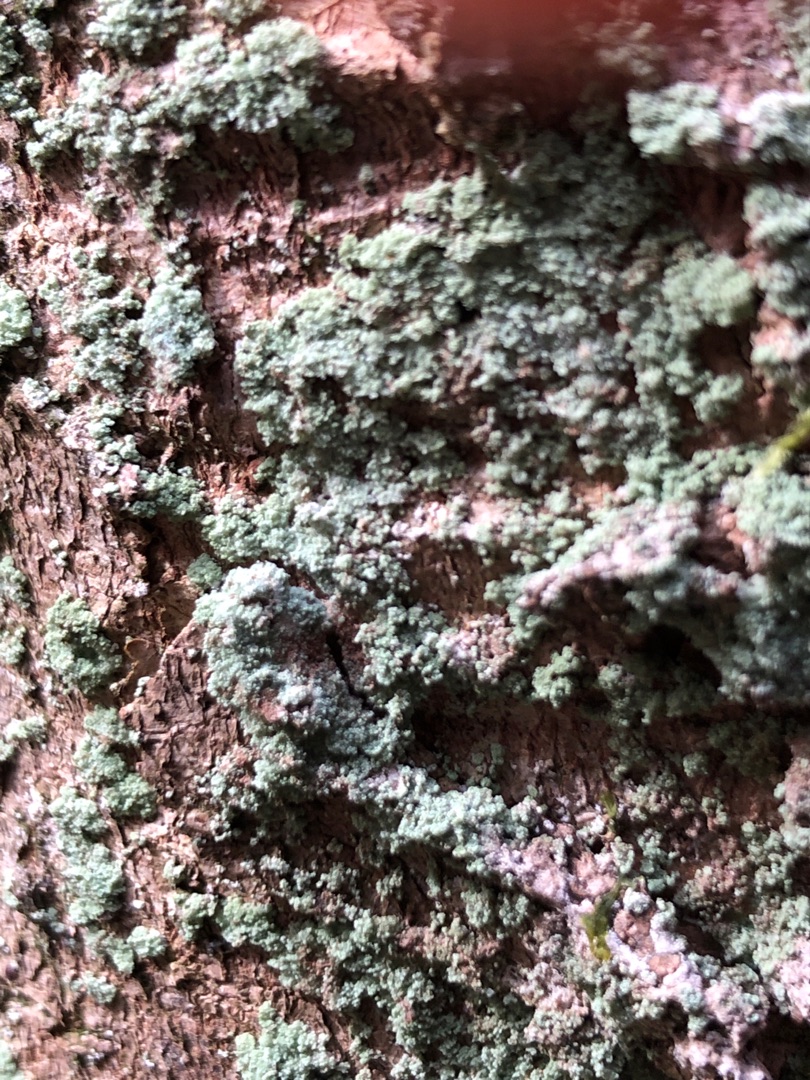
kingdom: Fungi
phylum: Ascomycota
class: Lecanoromycetes
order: Lecanorales
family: Stereocaulaceae
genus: Lepraria
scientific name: Lepraria
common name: Støvlav
